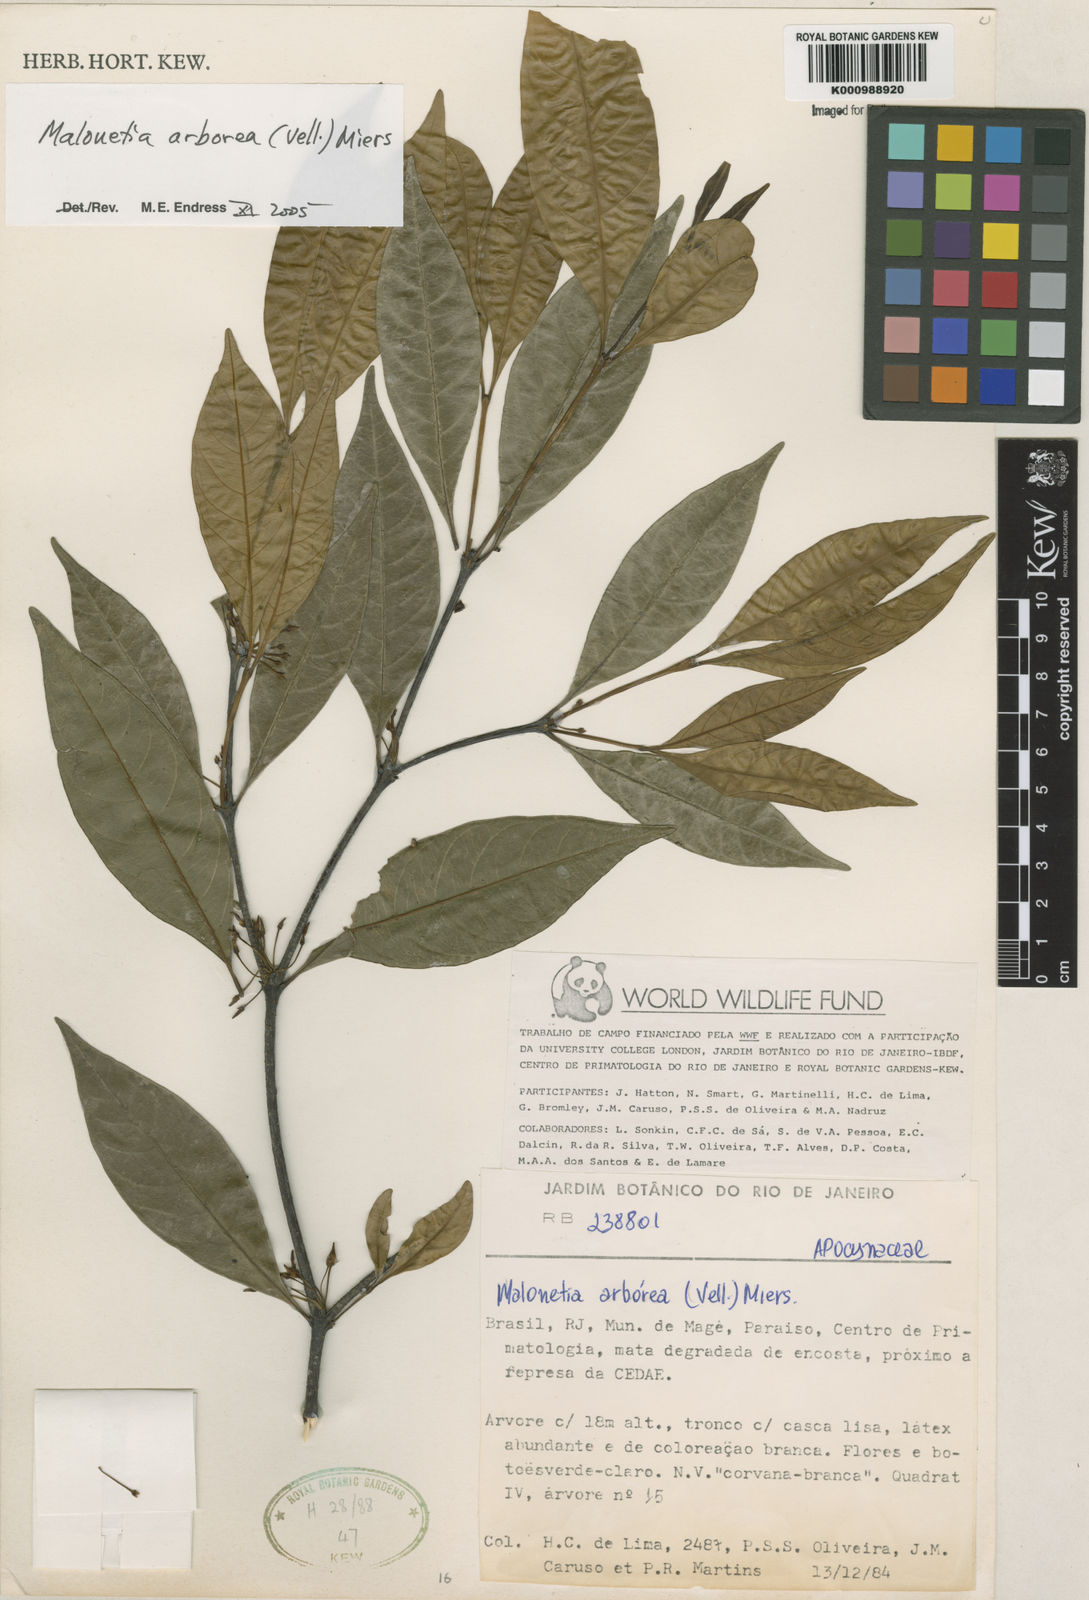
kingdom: Plantae
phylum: Tracheophyta
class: Magnoliopsida
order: Gentianales
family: Apocynaceae
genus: Malouetia
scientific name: Malouetia cestroides
